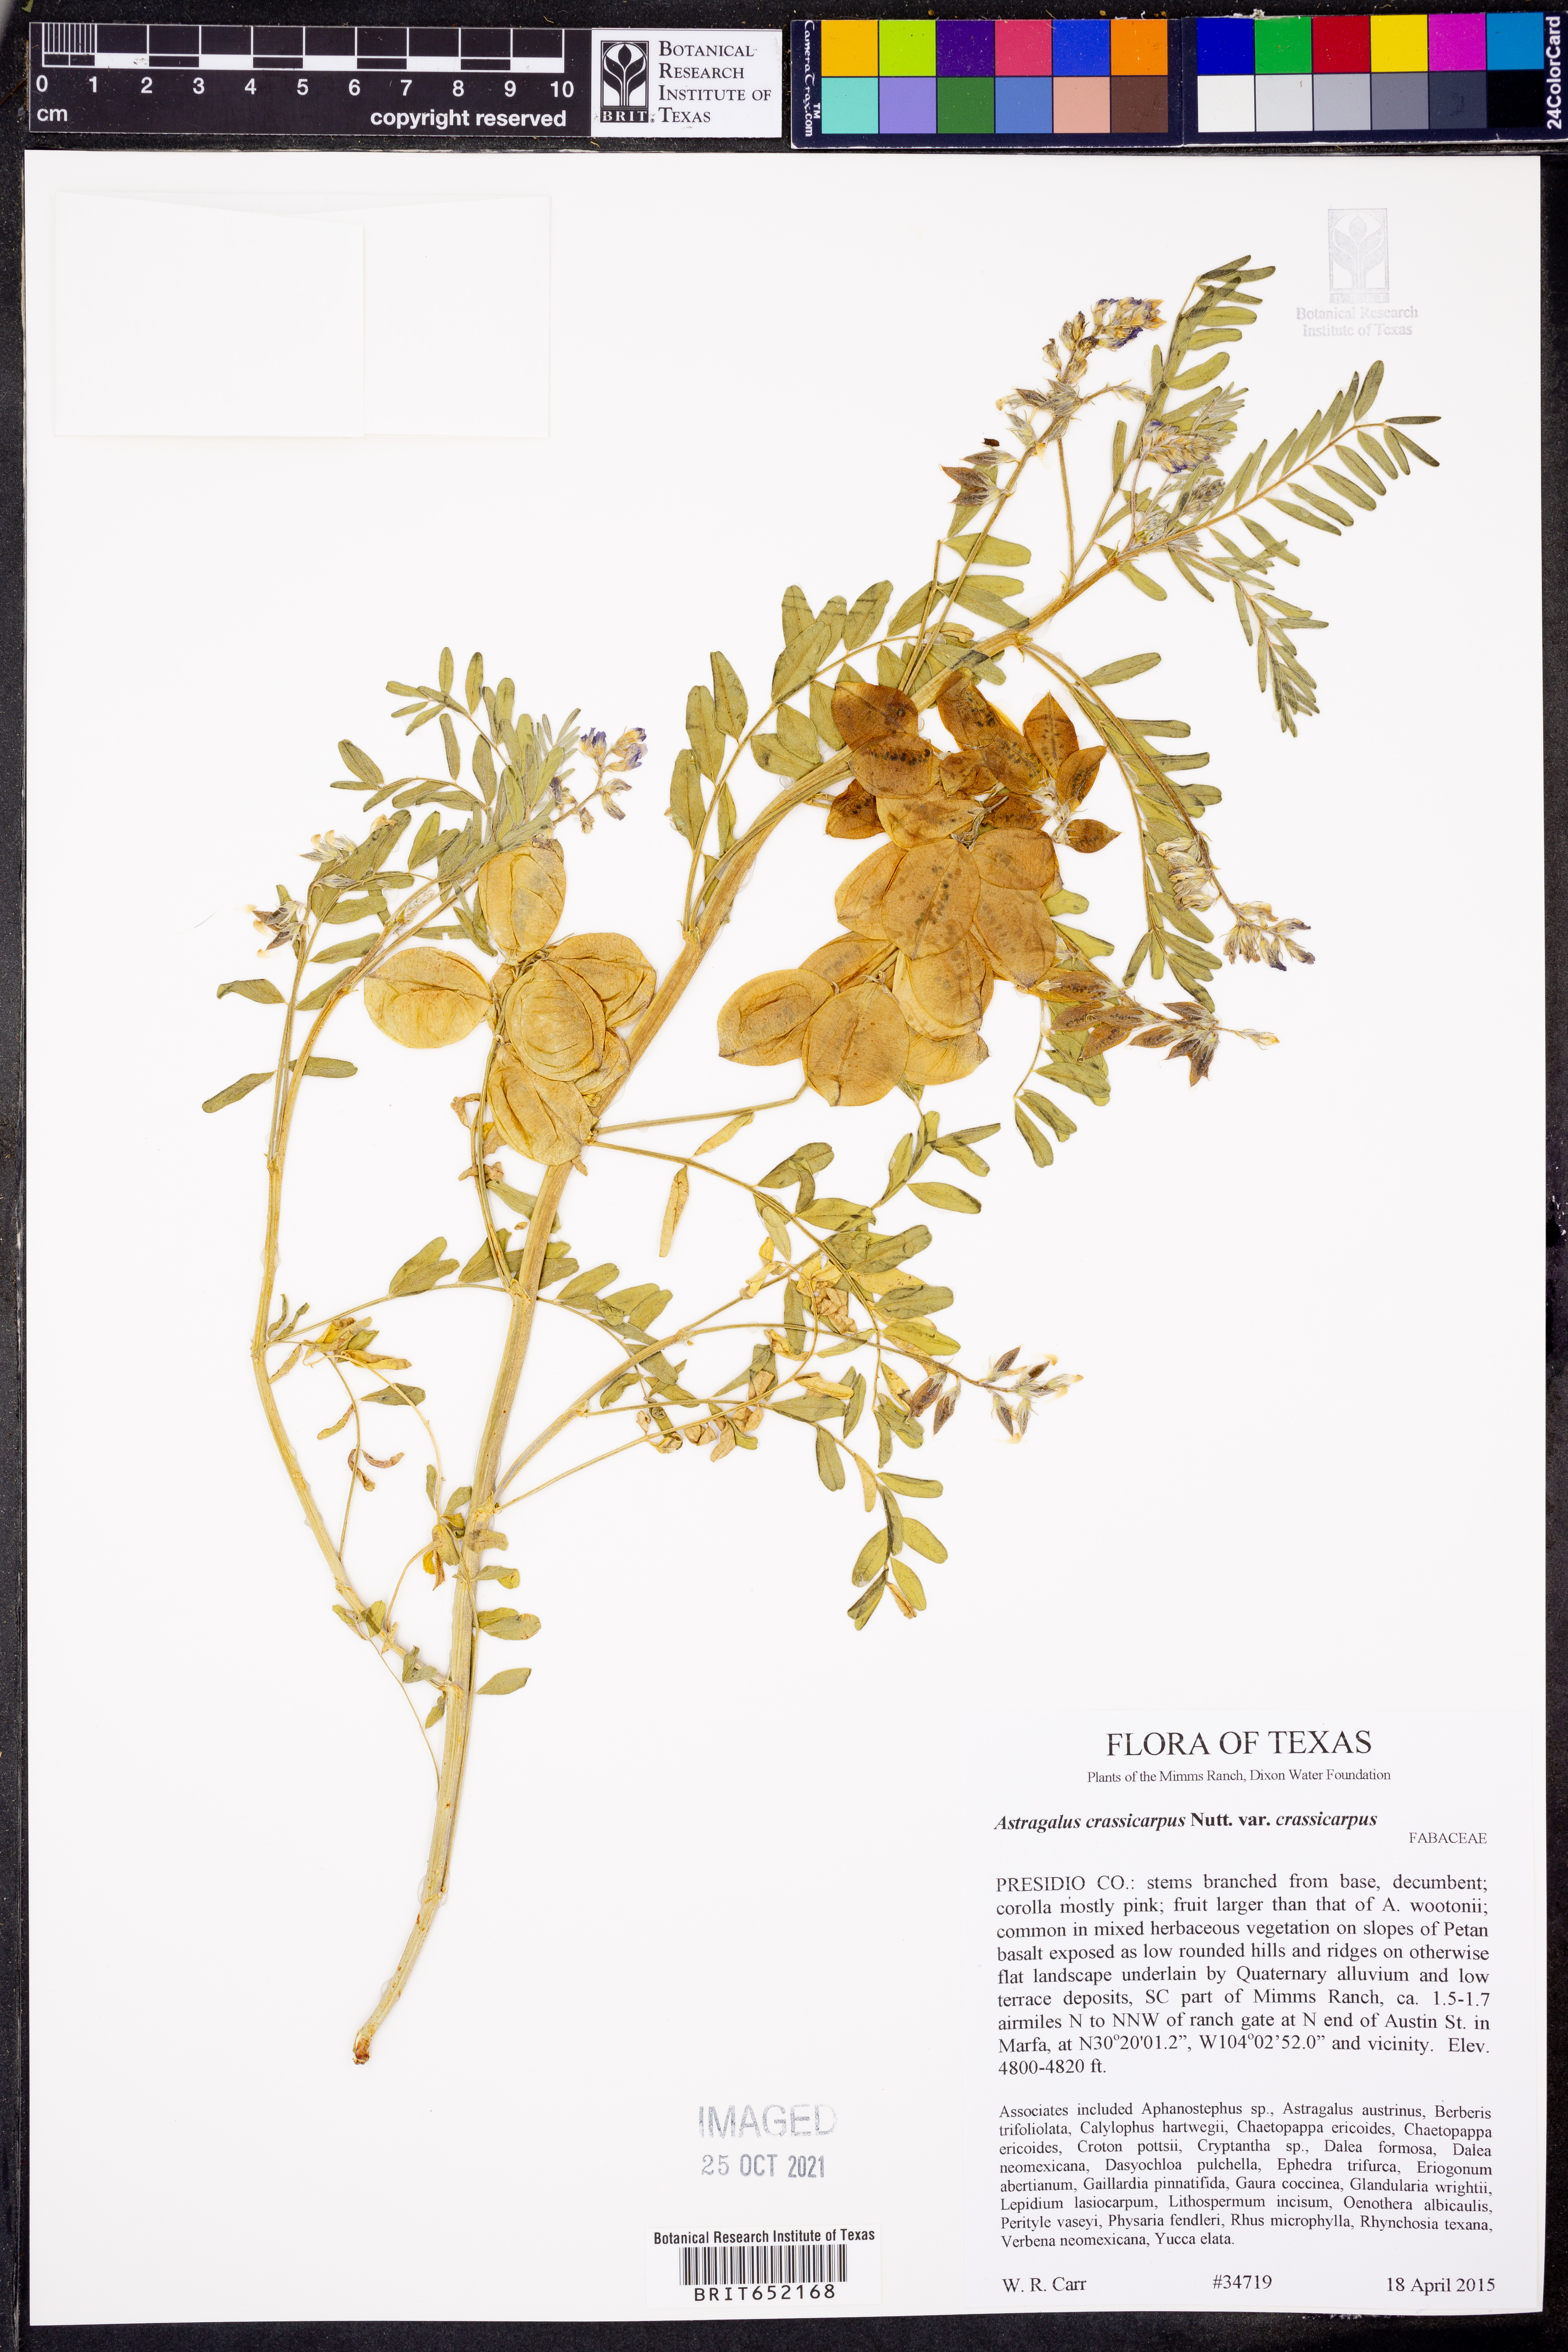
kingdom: Plantae
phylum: Tracheophyta
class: Magnoliopsida
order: Fabales
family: Fabaceae
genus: Astragalus
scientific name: Astragalus crassicarpus
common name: Ground-plum milk-vetch
